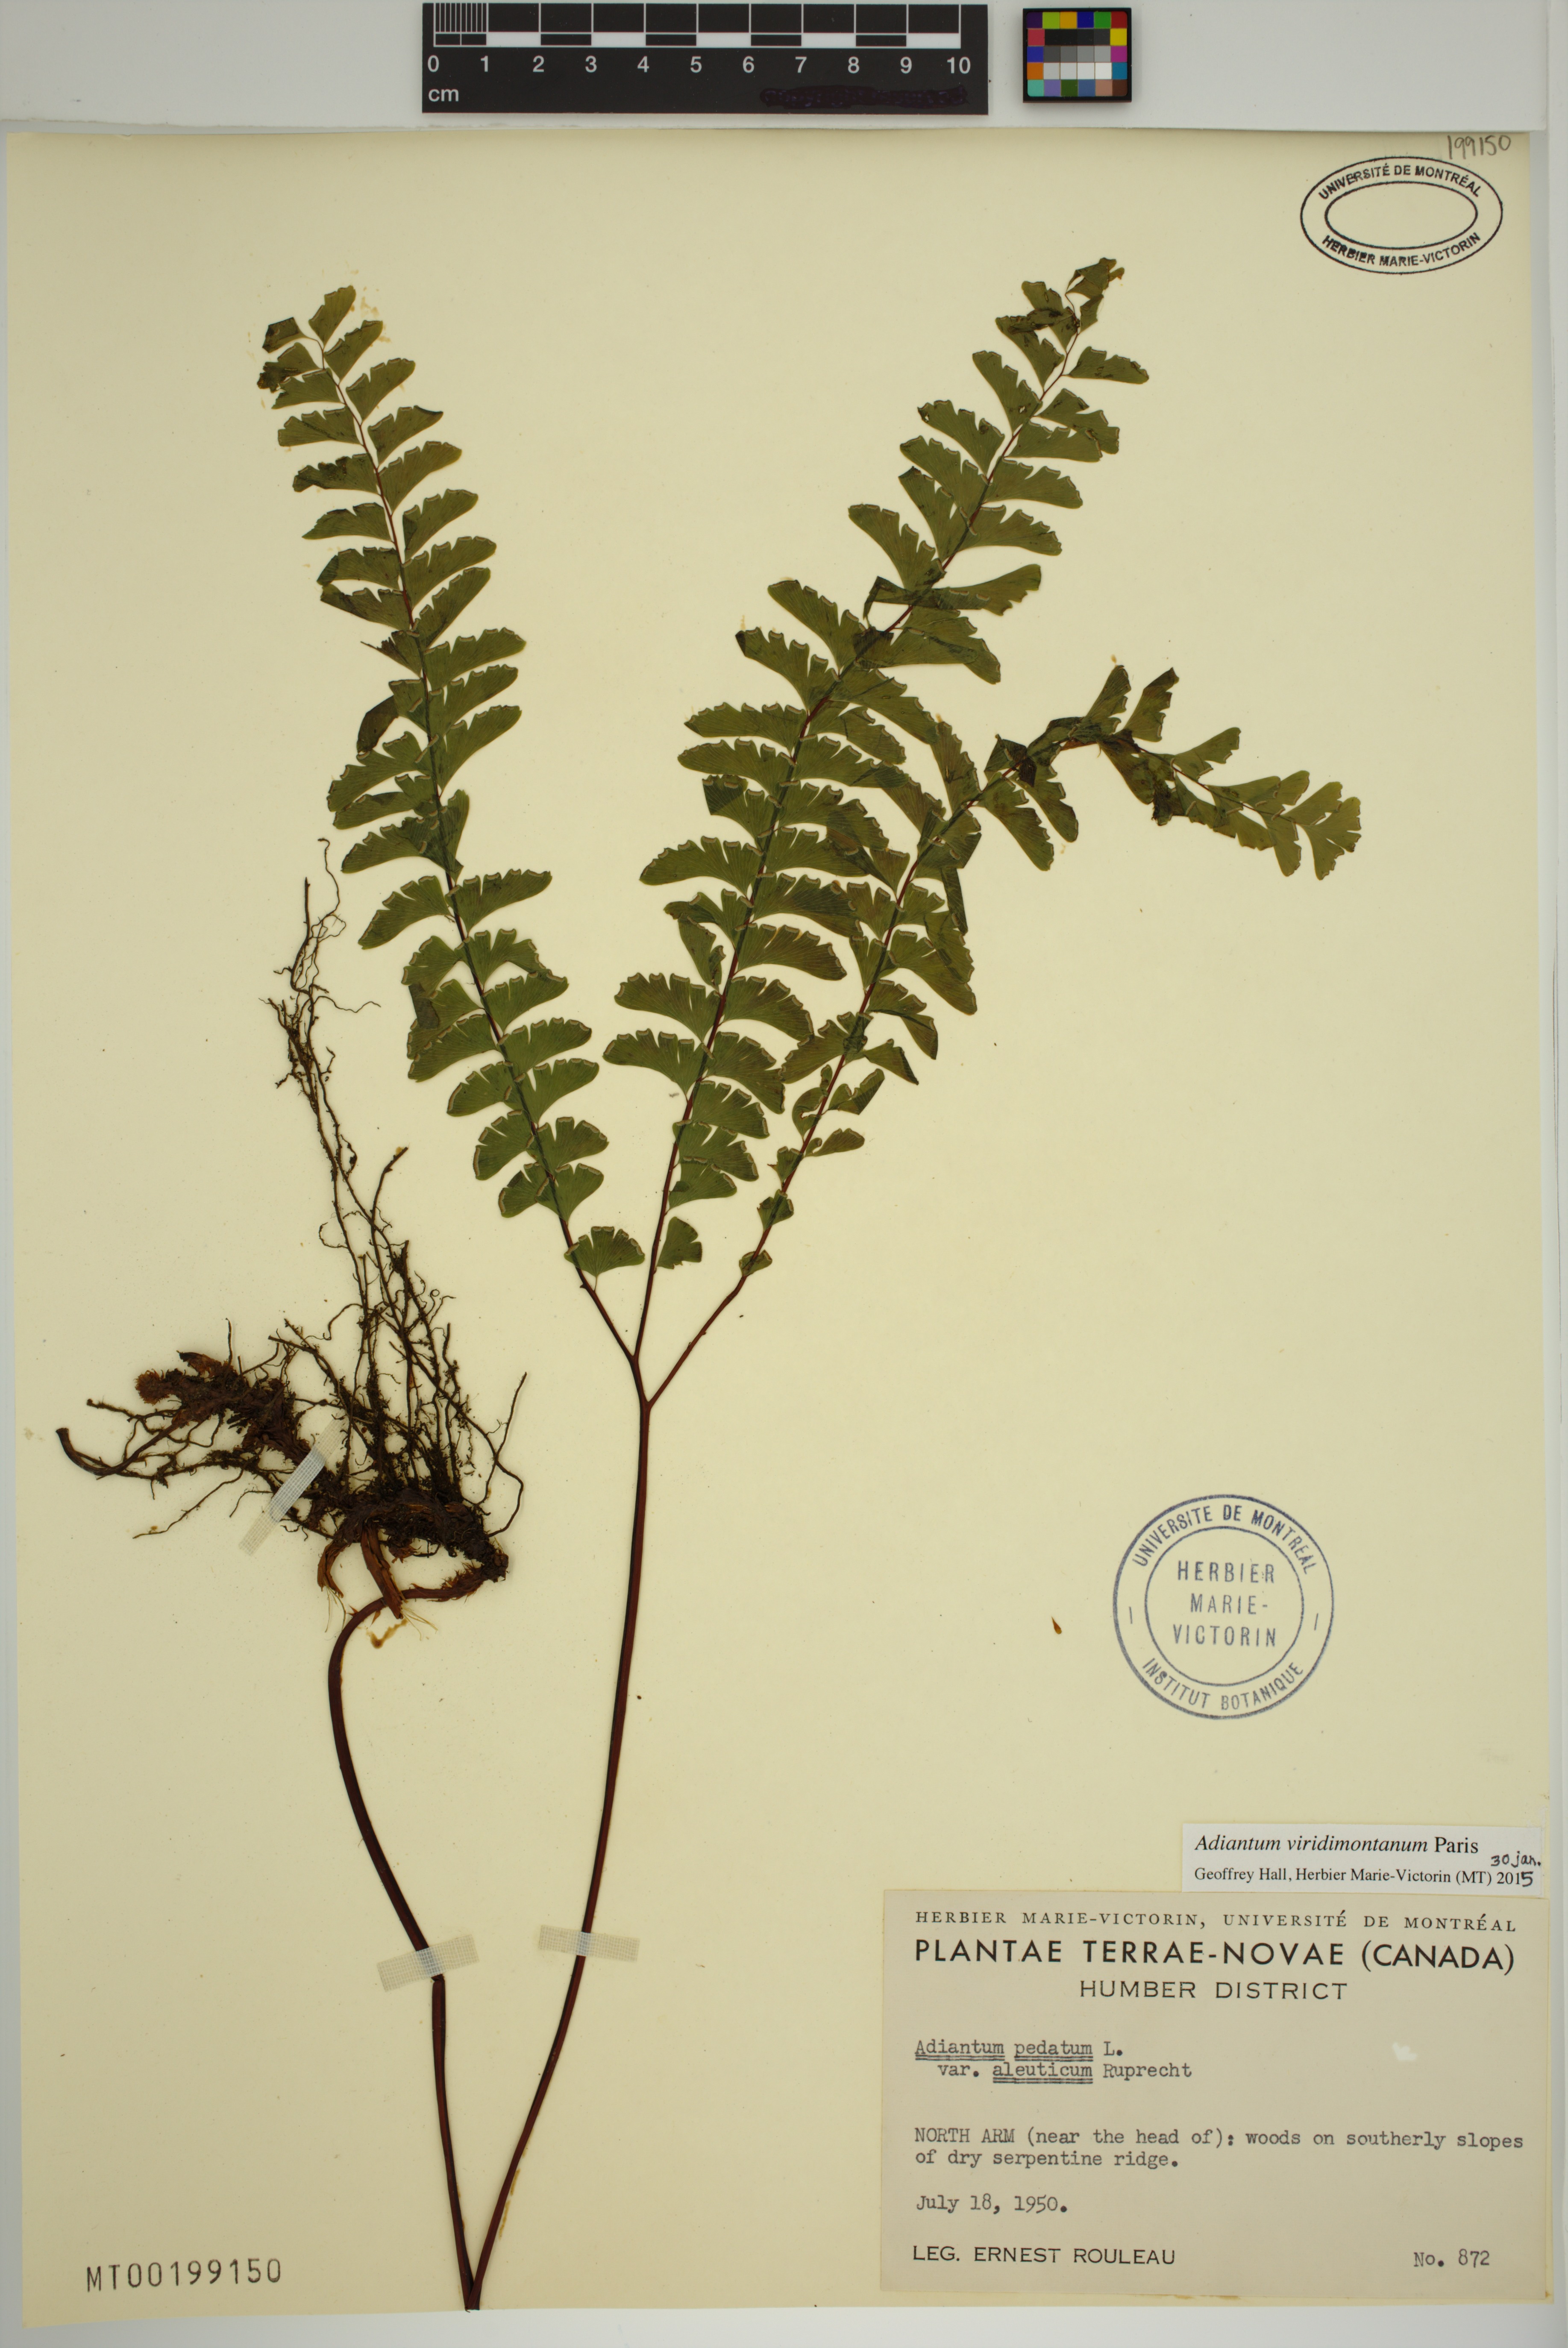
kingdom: Plantae
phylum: Tracheophyta
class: Polypodiopsida
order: Polypodiales
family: Pteridaceae
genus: Adiantum
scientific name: Adiantum viridimontanum
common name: Green mountain maidenhair
